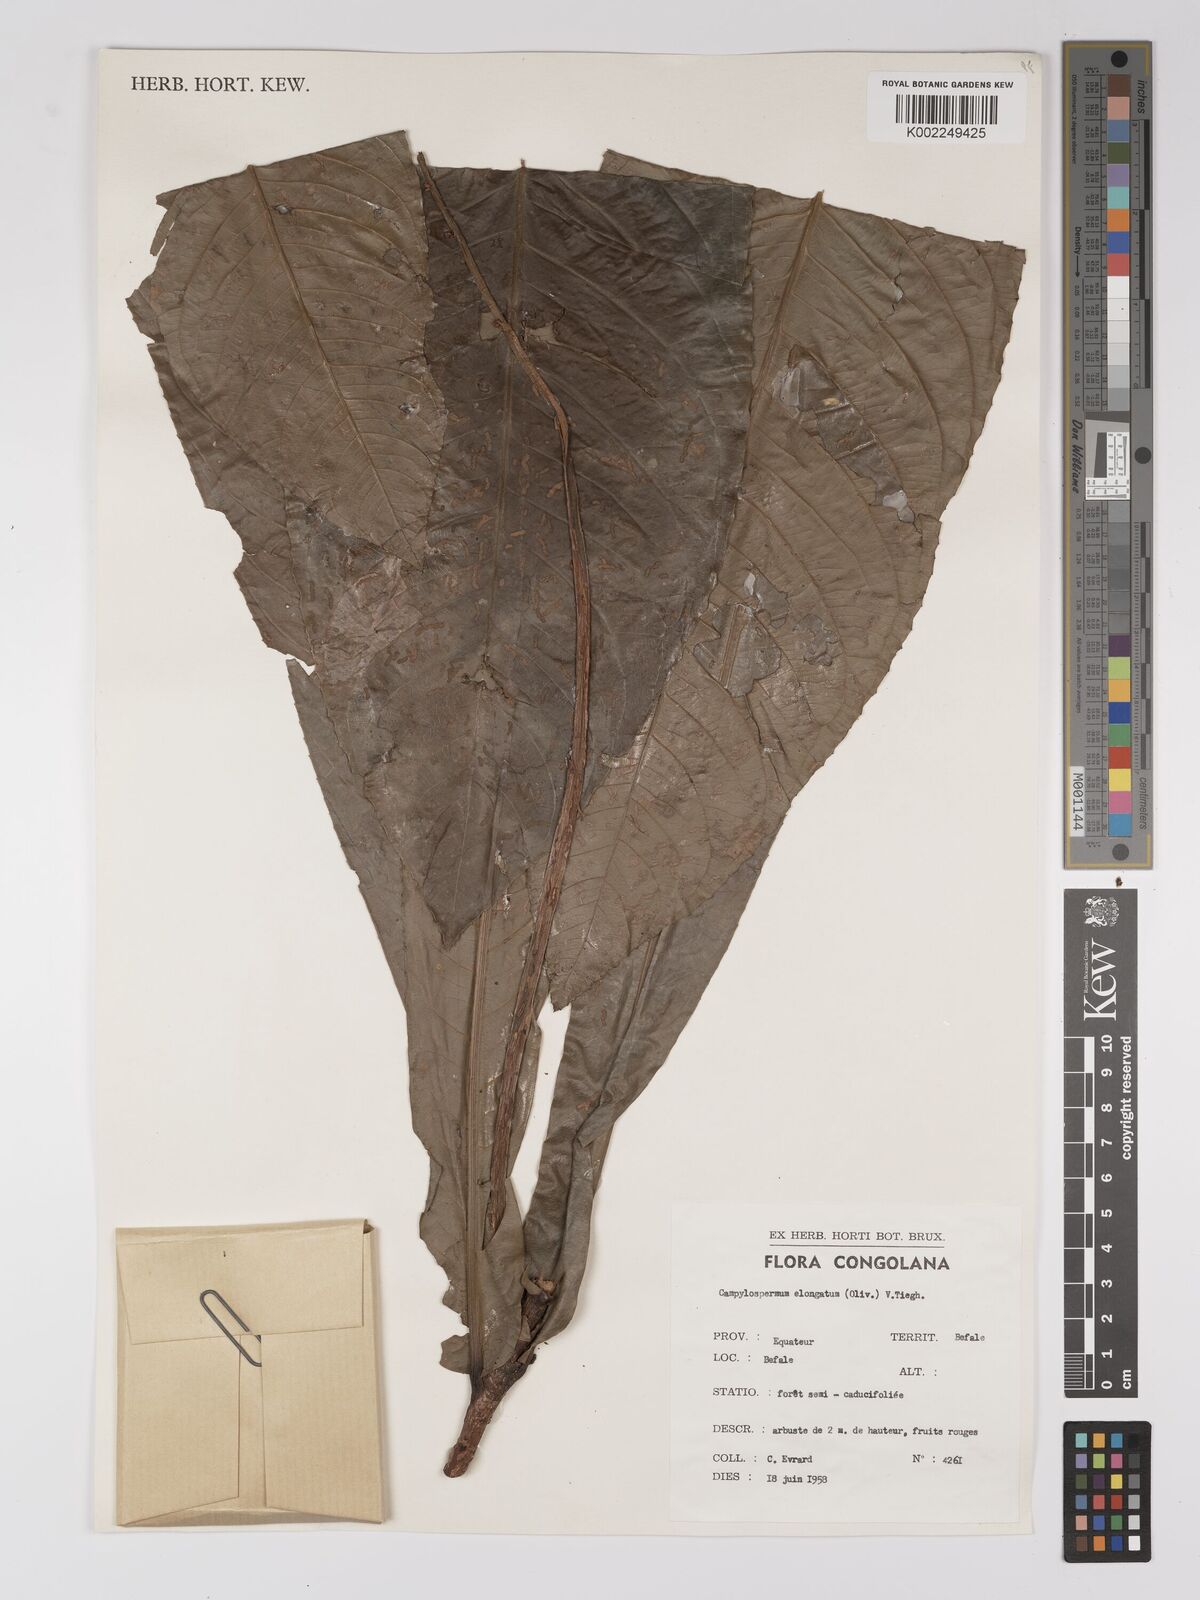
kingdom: Plantae
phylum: Tracheophyta
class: Magnoliopsida
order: Malpighiales
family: Ochnaceae
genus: Gomphia
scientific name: Gomphia elongata
